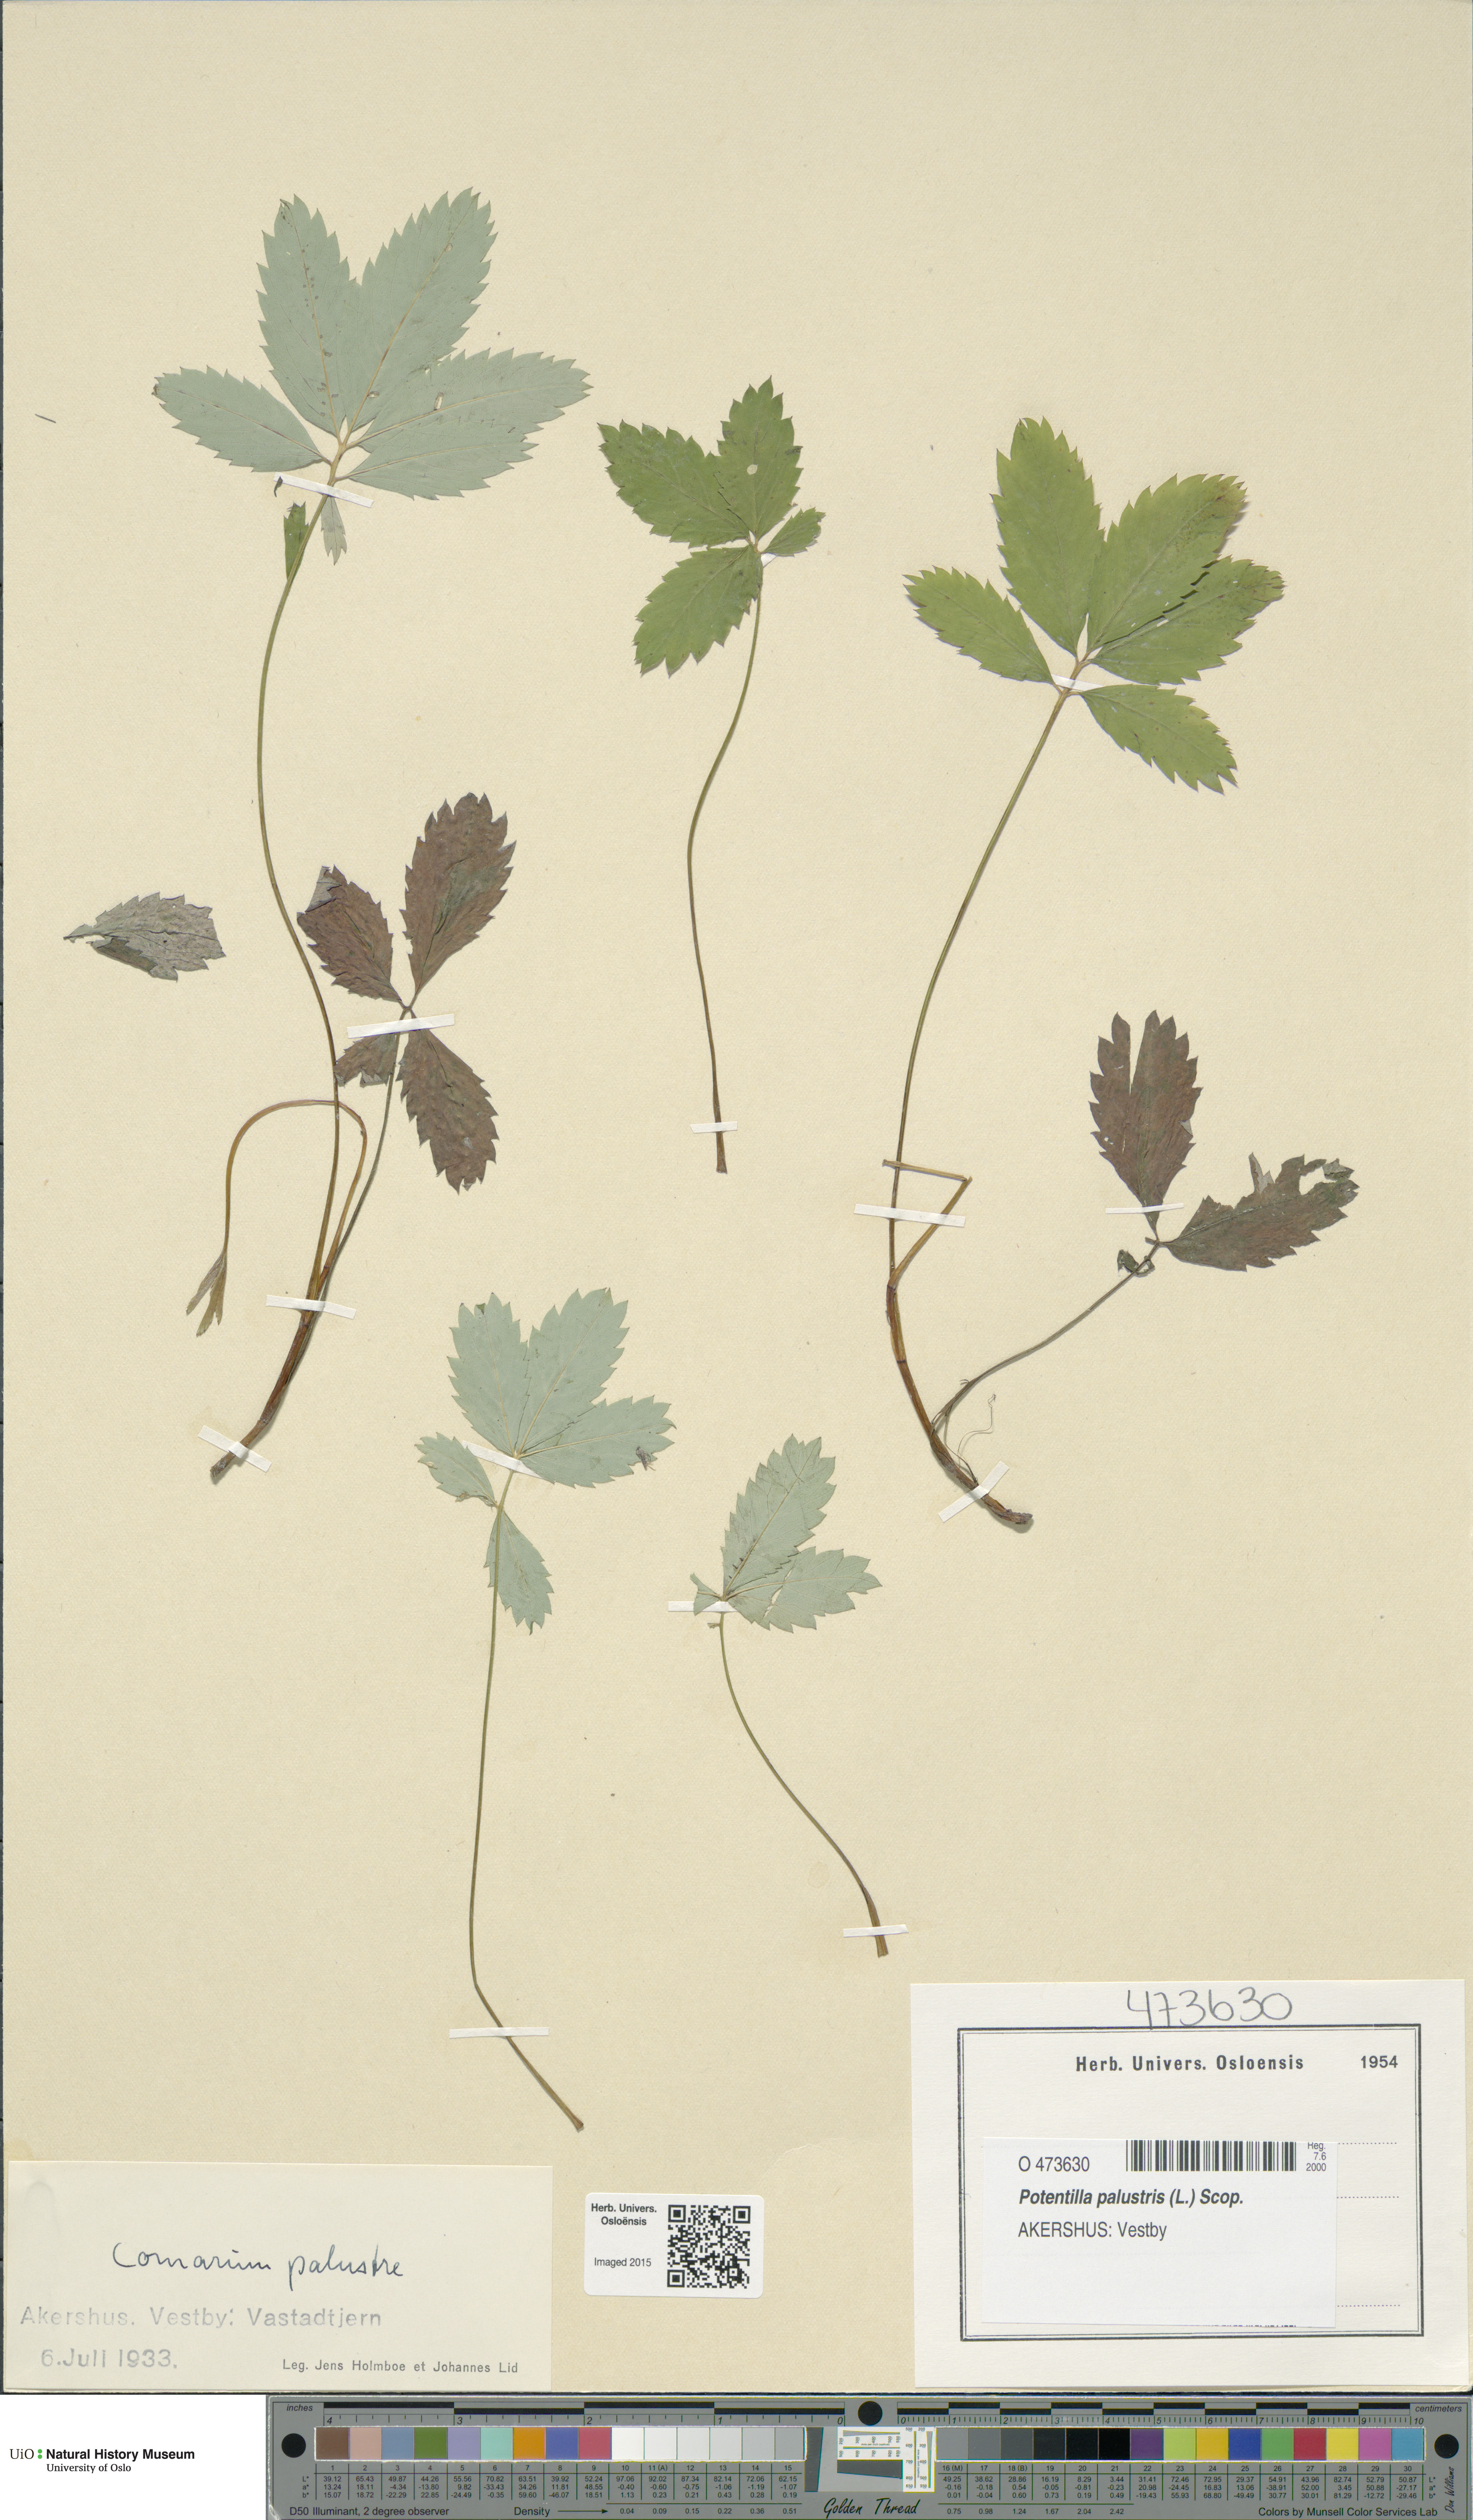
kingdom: Plantae
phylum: Tracheophyta
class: Magnoliopsida
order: Rosales
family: Rosaceae
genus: Comarum
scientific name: Comarum palustre
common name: Marsh cinquefoil
